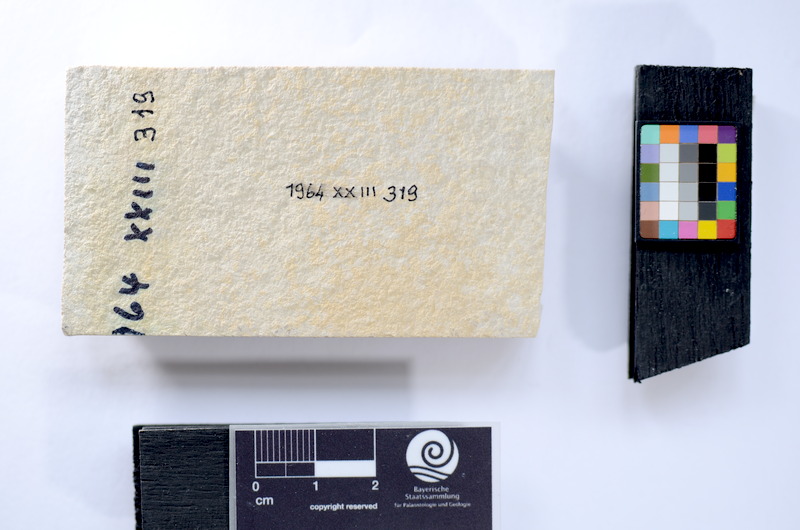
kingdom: Animalia
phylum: Chordata
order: Salmoniformes
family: Orthogonikleithridae
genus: Leptolepides
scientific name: Leptolepides
